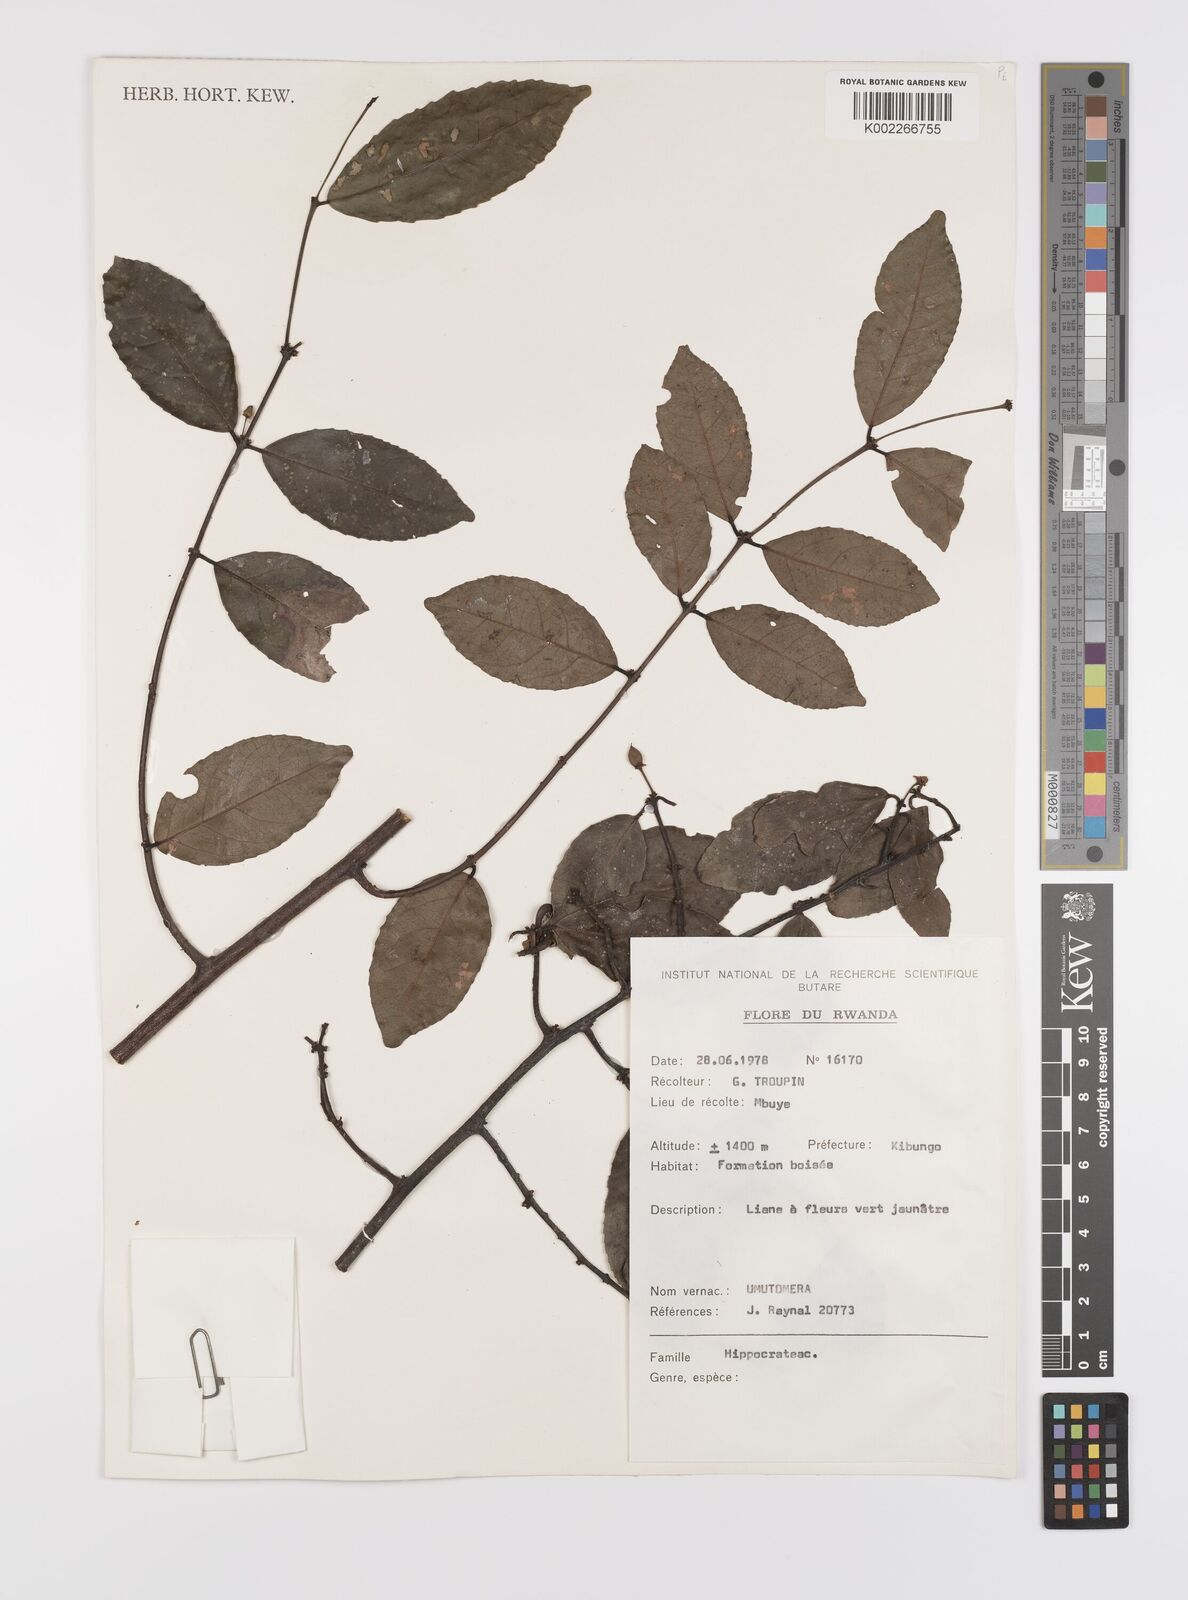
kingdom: Plantae
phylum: Tracheophyta
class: Magnoliopsida
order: Celastrales
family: Celastraceae
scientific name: Celastraceae
